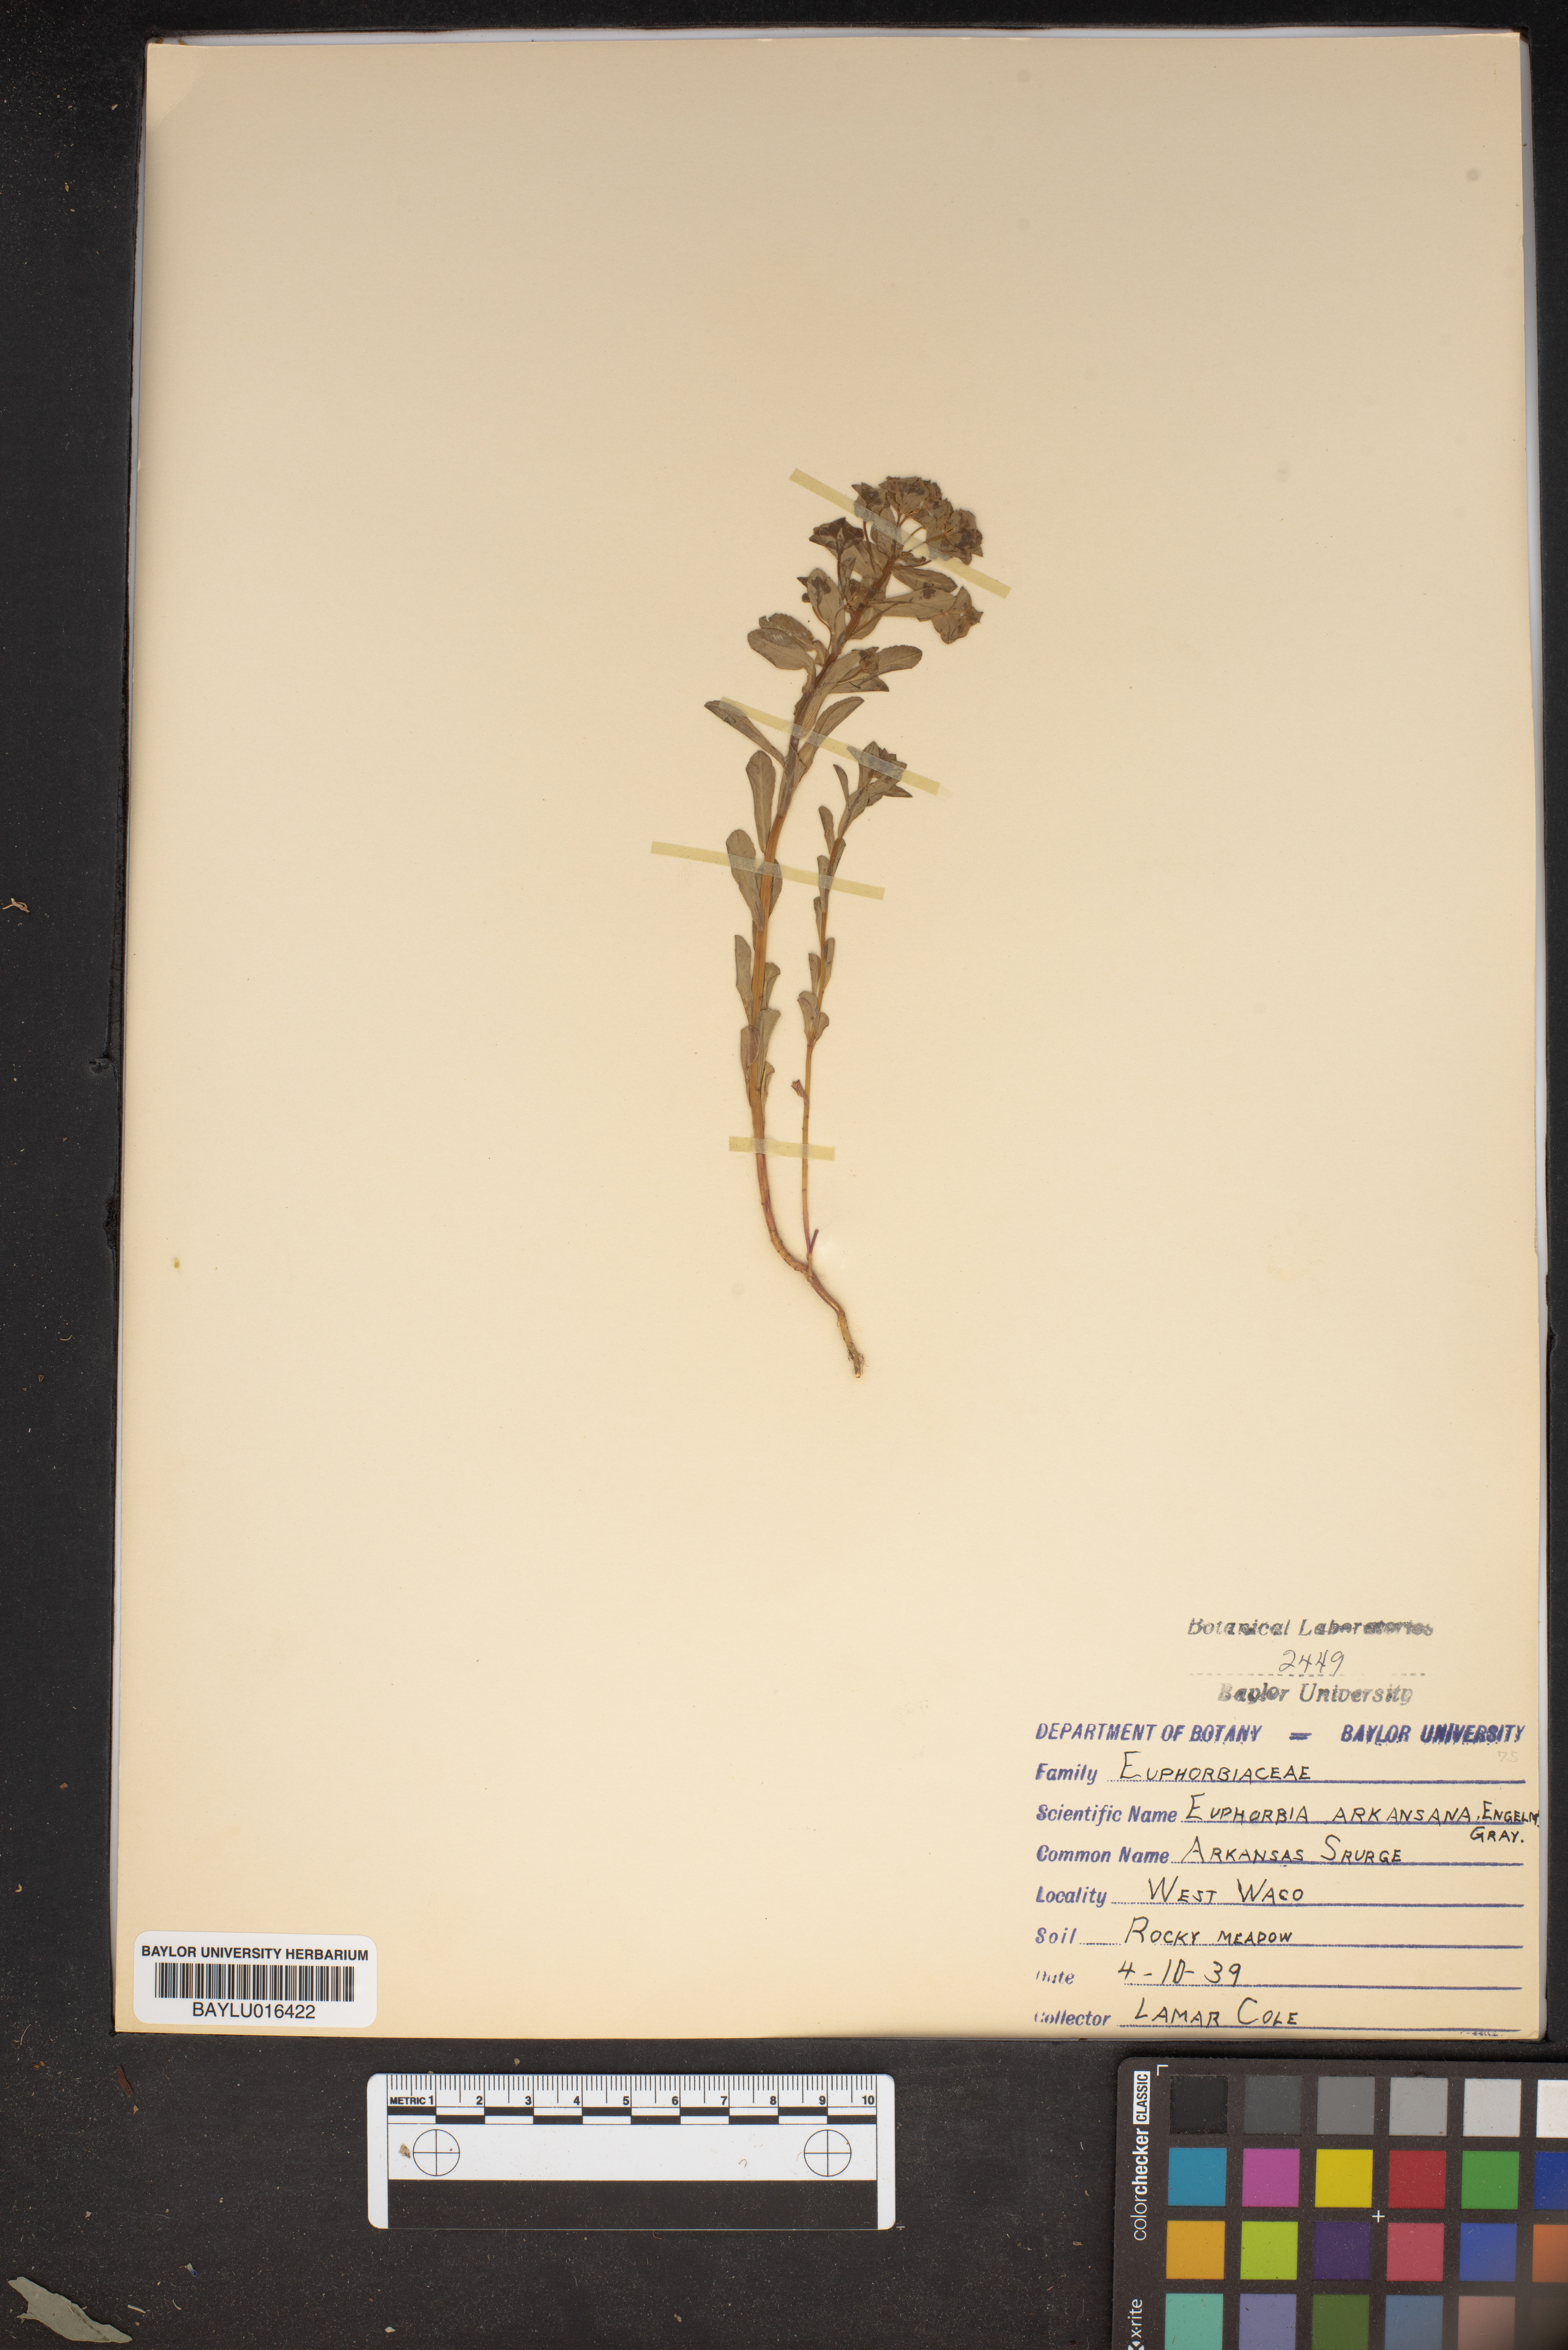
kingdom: Plantae
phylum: Tracheophyta
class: Magnoliopsida
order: Malpighiales
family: Euphorbiaceae
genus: Euphorbia
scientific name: Euphorbia spathulata
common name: Blunt spurge
